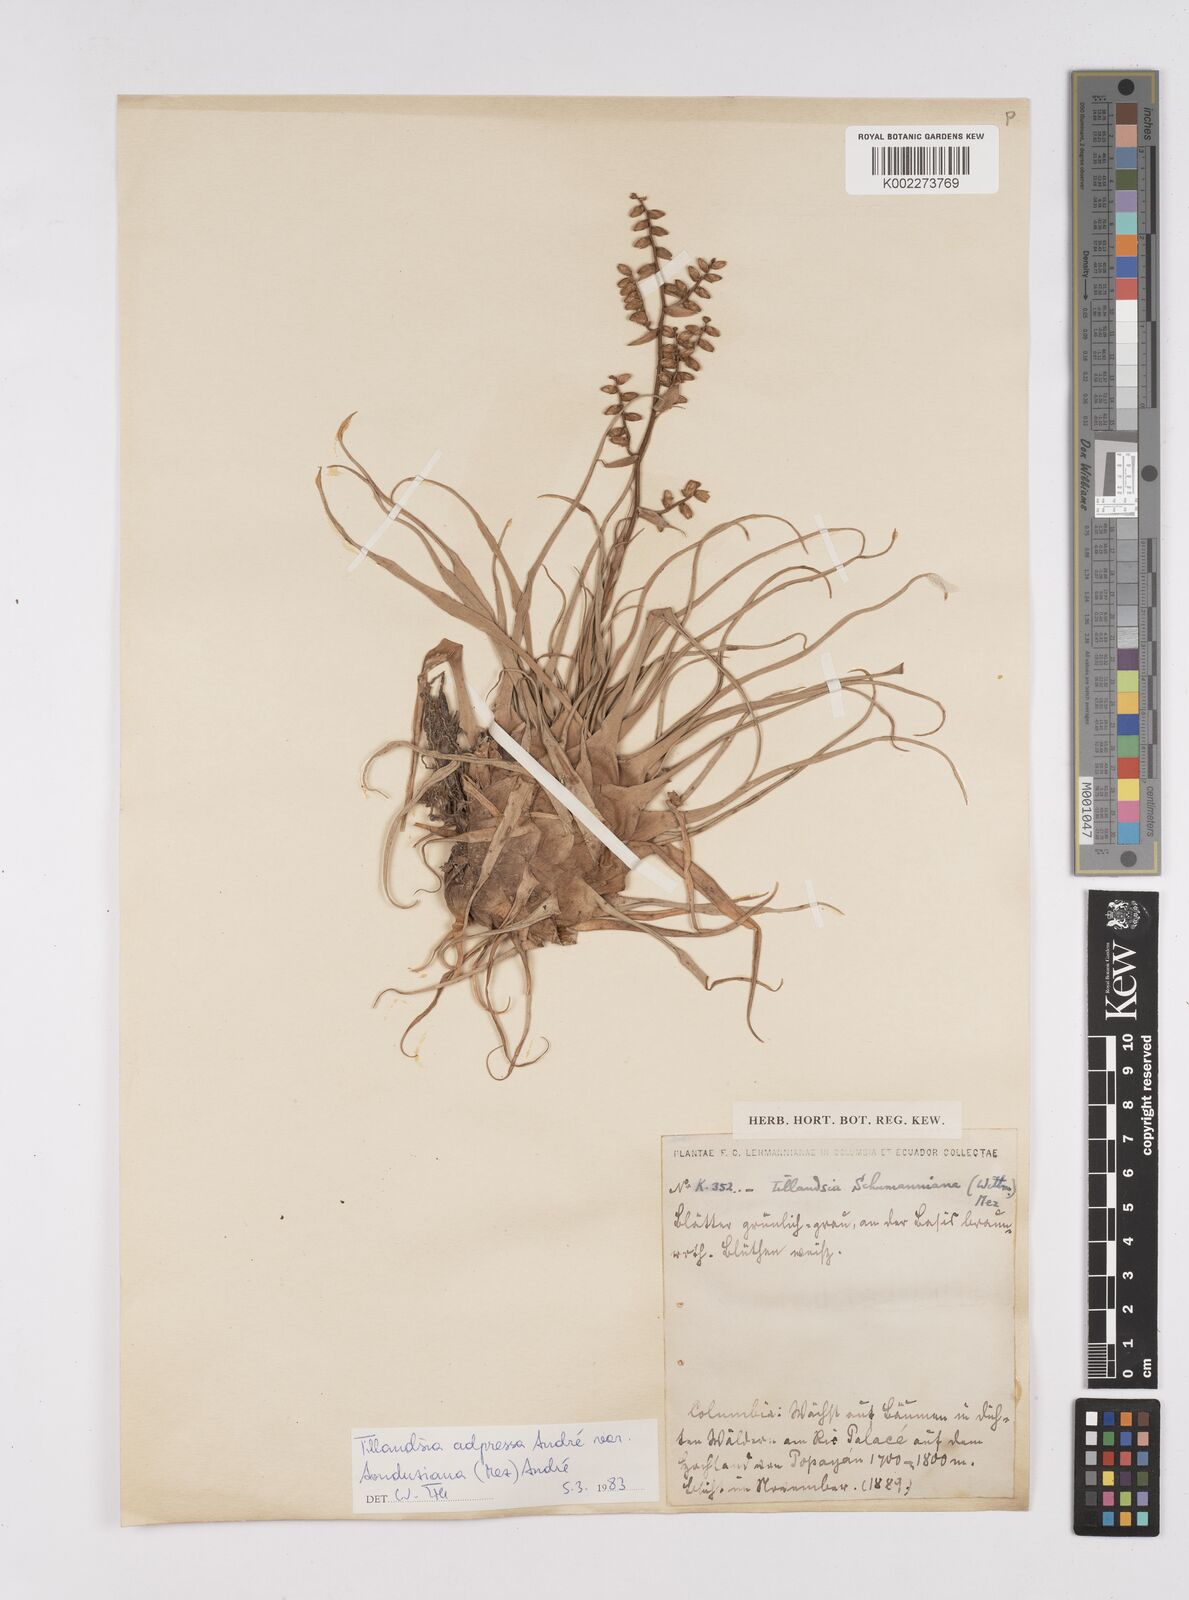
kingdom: Plantae
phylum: Tracheophyta
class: Liliopsida
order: Poales
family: Bromeliaceae
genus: Racinaea
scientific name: Racinaea schumanniana
